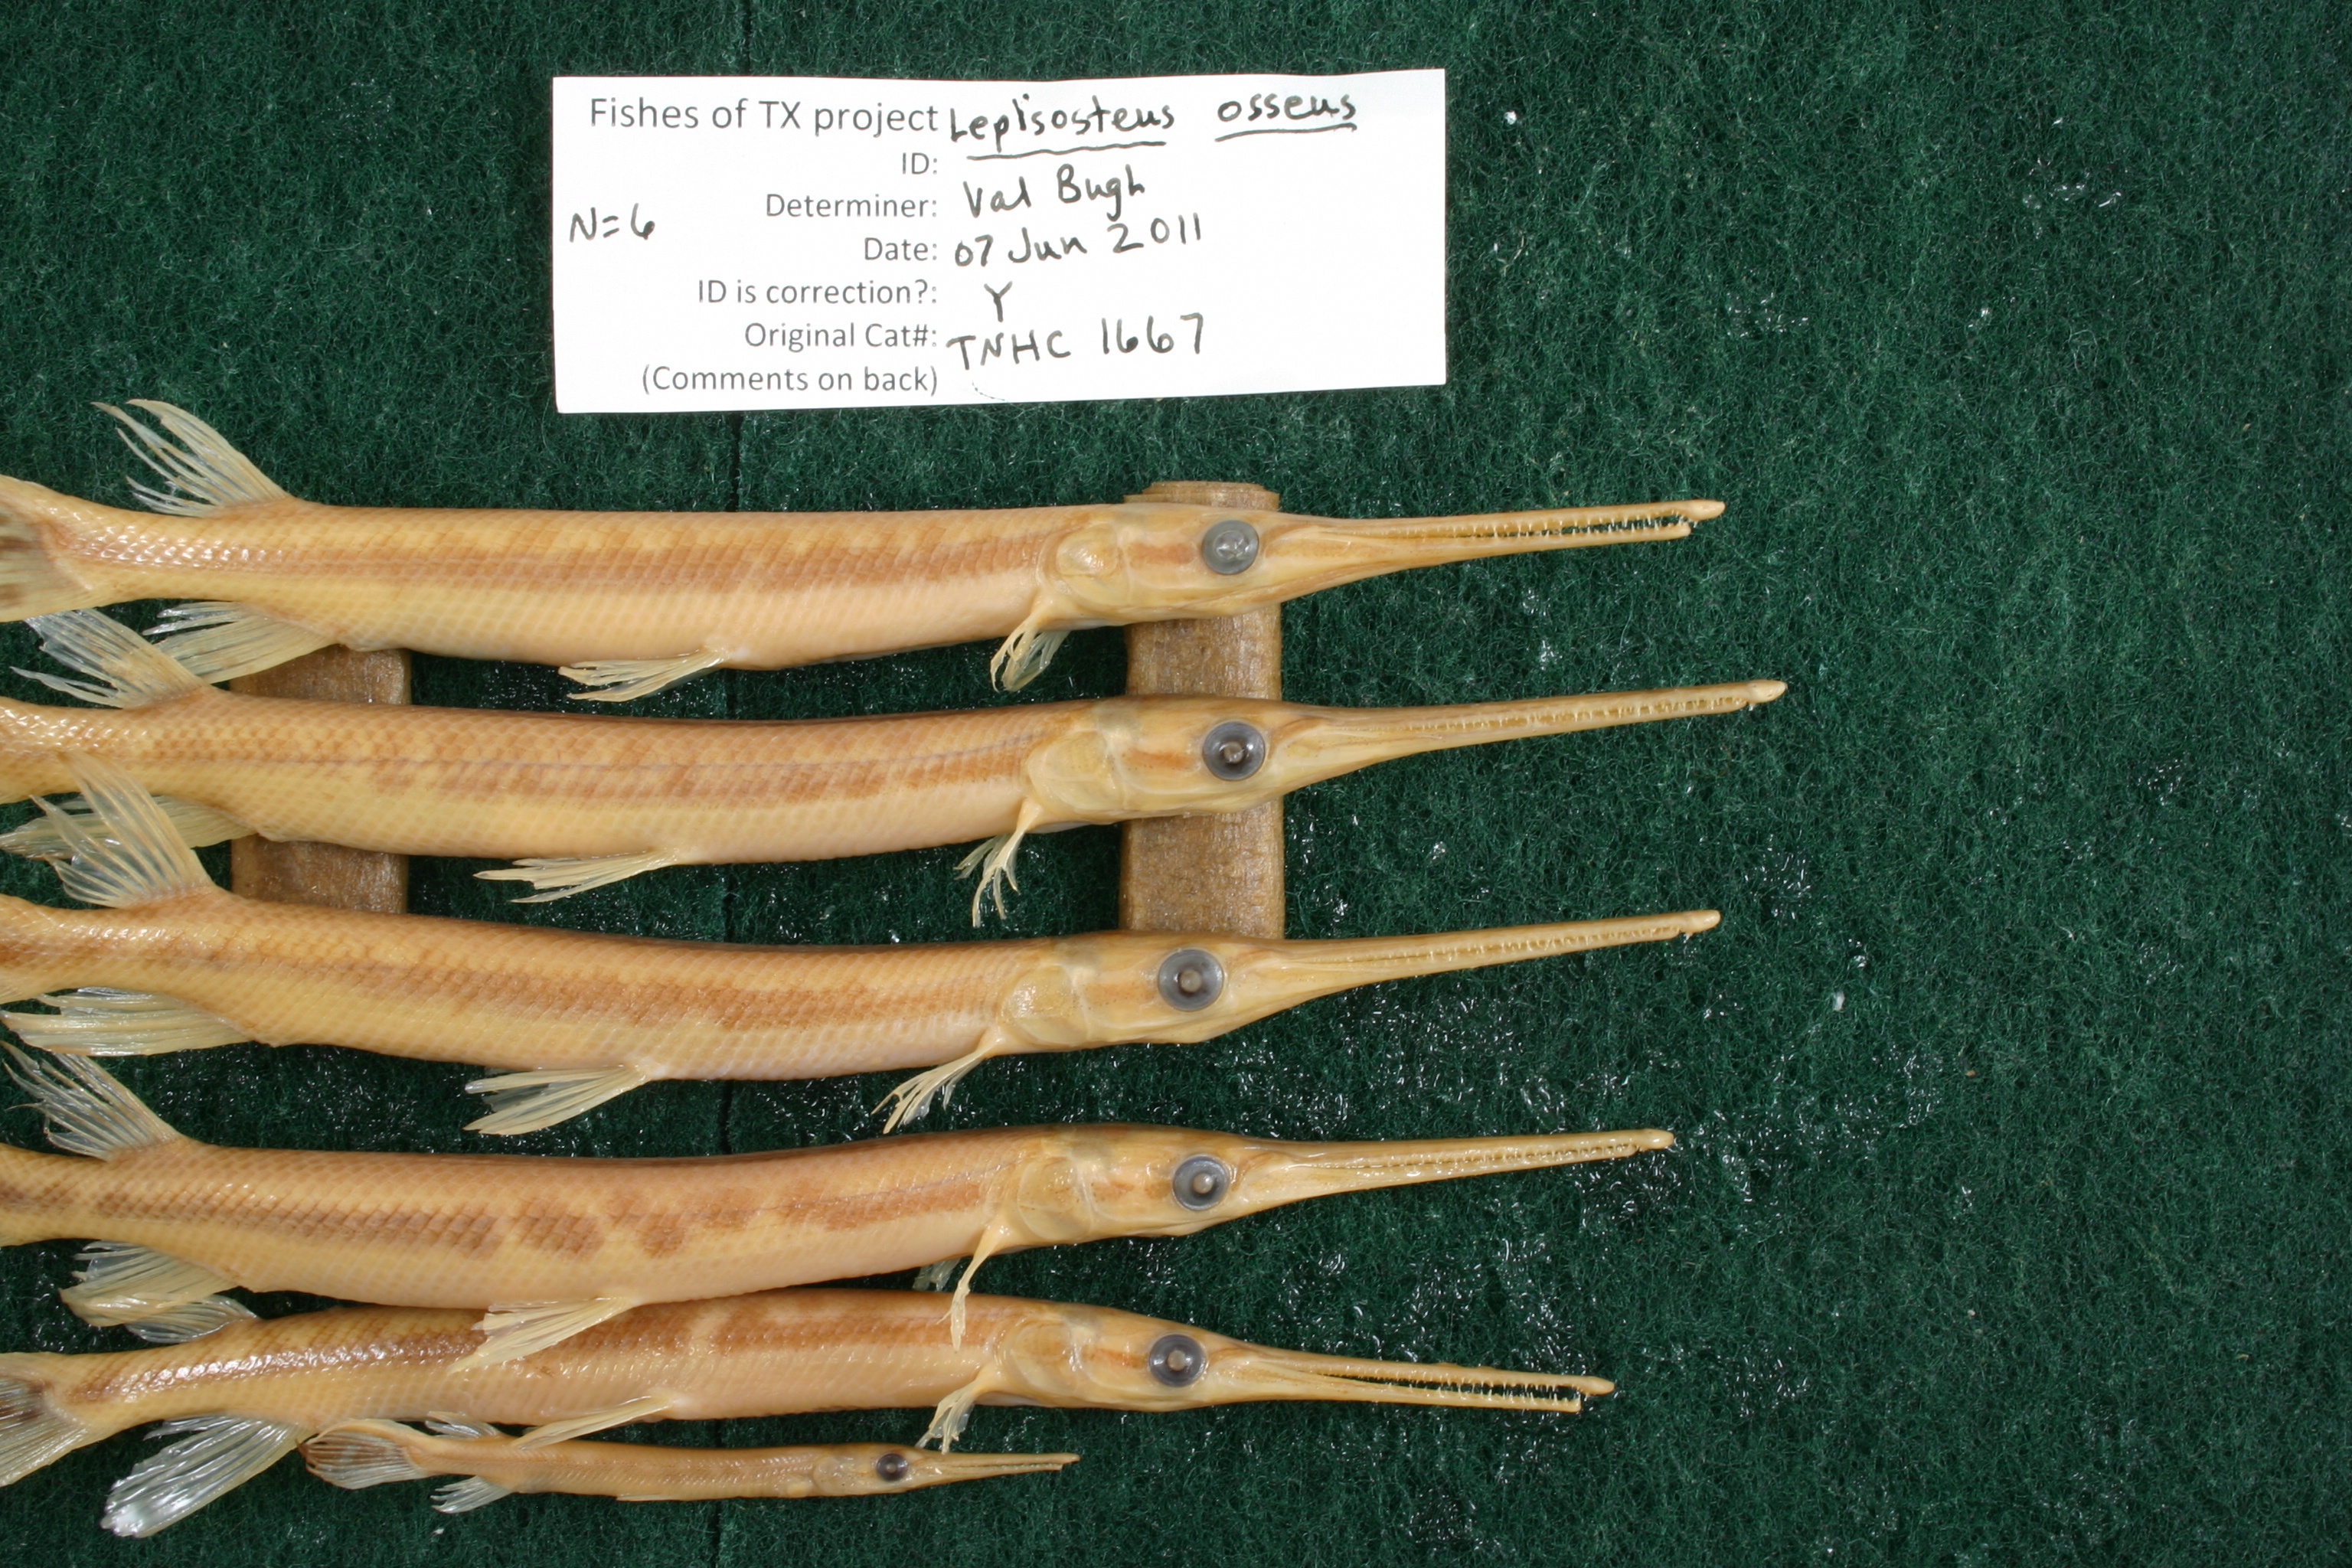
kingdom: Animalia
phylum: Chordata
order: Lepisosteiformes
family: Lepisosteidae
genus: Lepisosteus
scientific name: Lepisosteus osseus
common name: Longnose gar
